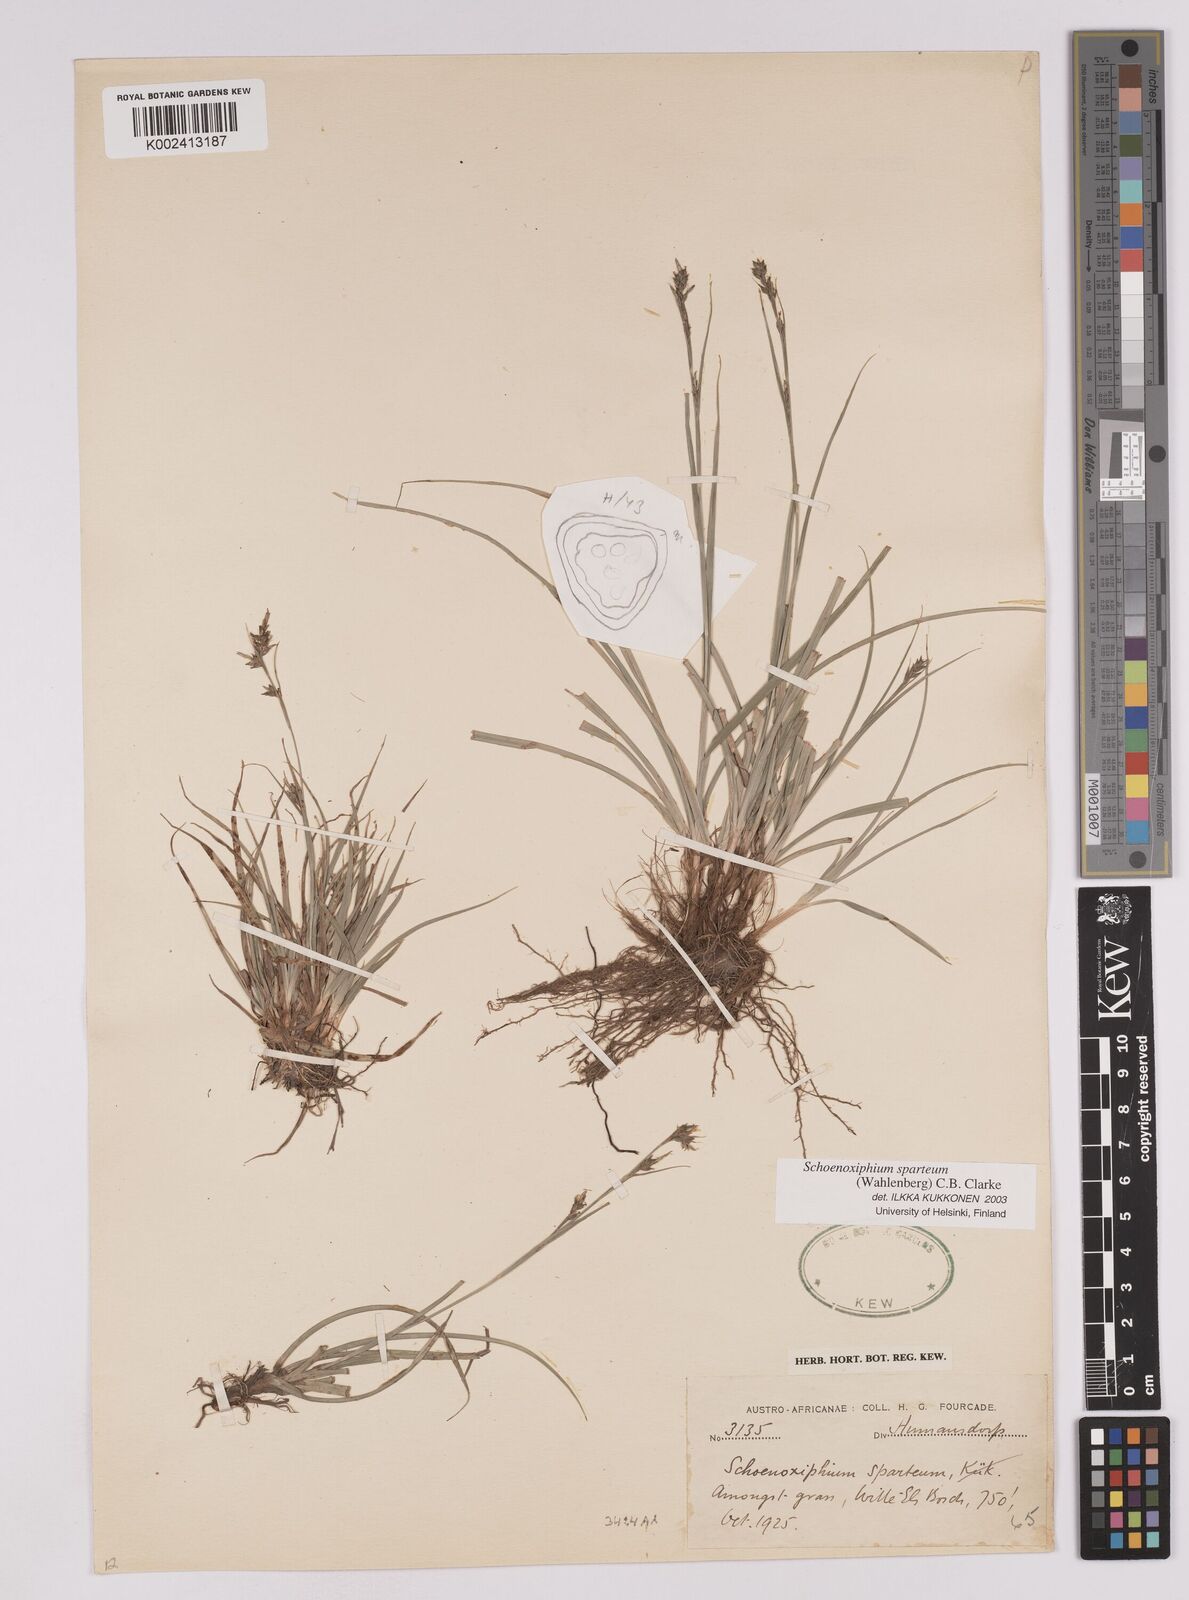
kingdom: Plantae
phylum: Tracheophyta
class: Liliopsida
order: Poales
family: Cyperaceae
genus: Carex
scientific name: Carex spartea
